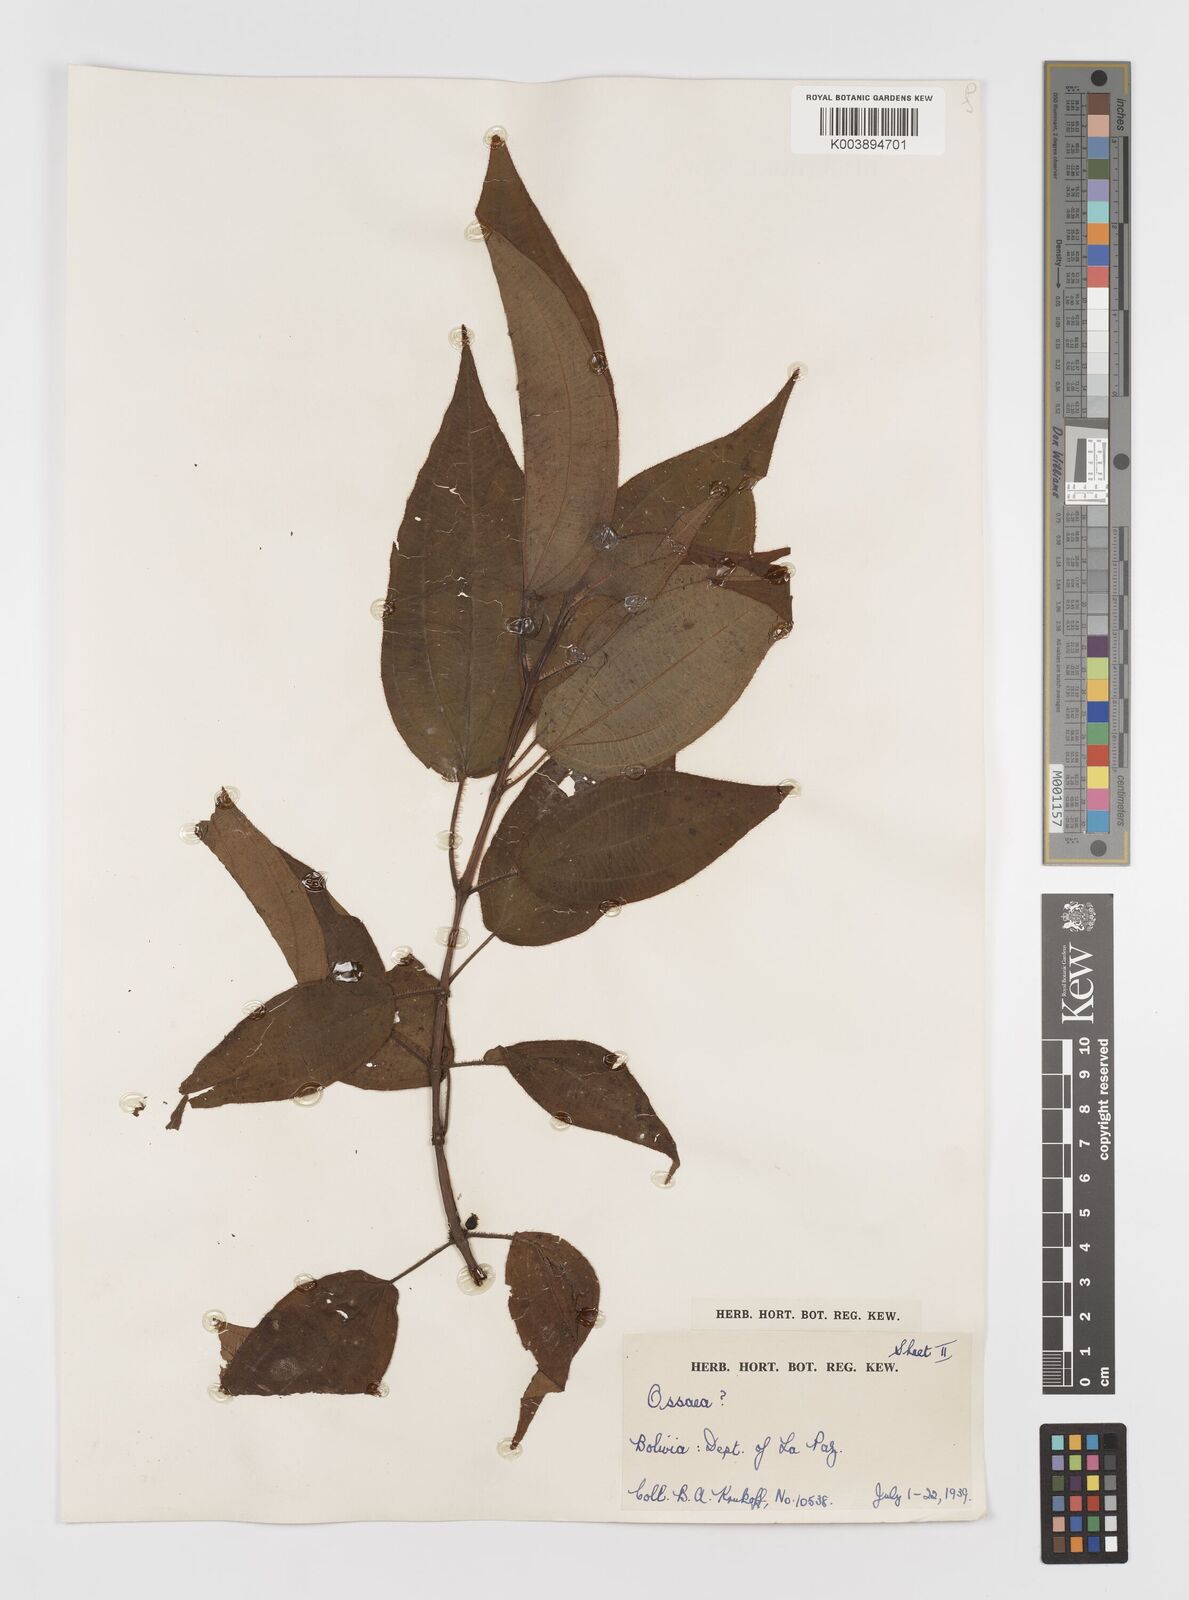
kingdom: Plantae
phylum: Tracheophyta
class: Magnoliopsida
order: Myrtales
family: Melastomataceae
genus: Ossaea
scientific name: Ossaea
